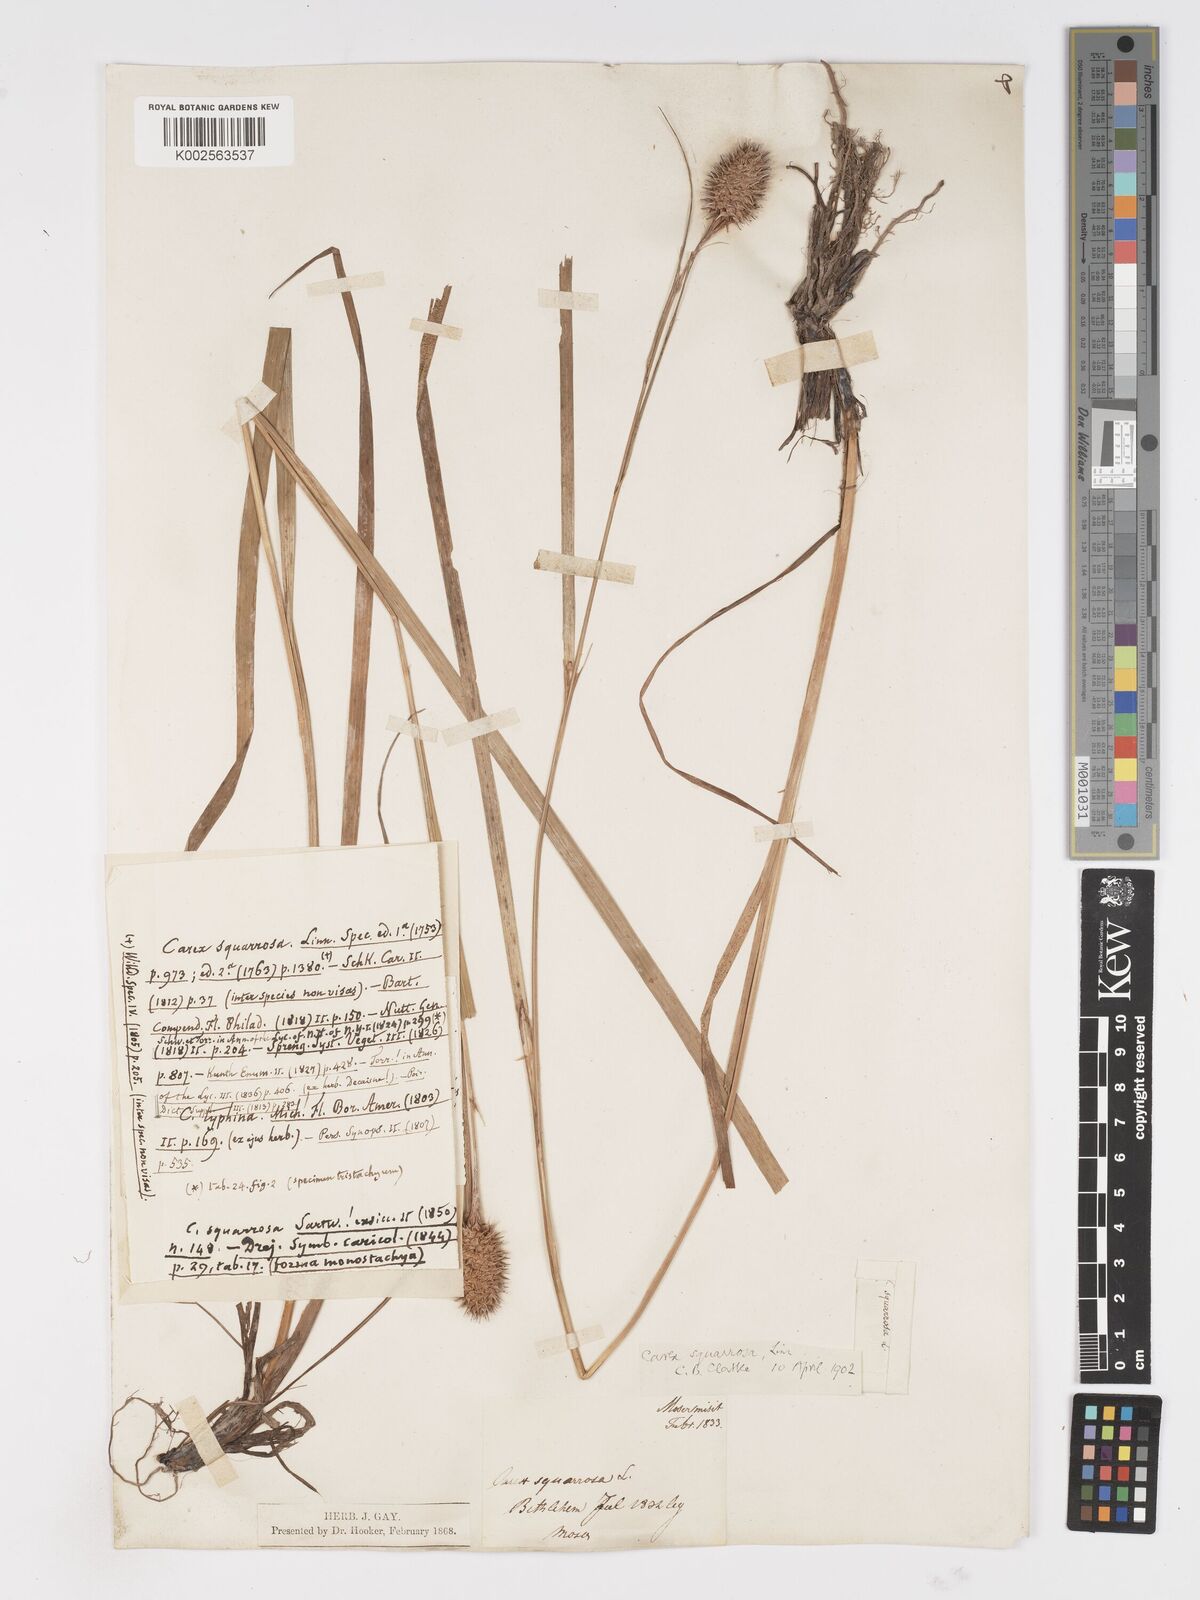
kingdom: Plantae
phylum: Tracheophyta
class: Liliopsida
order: Poales
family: Cyperaceae
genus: Carex
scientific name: Carex squarrosa
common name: Narrow-leaved cattail sedge
